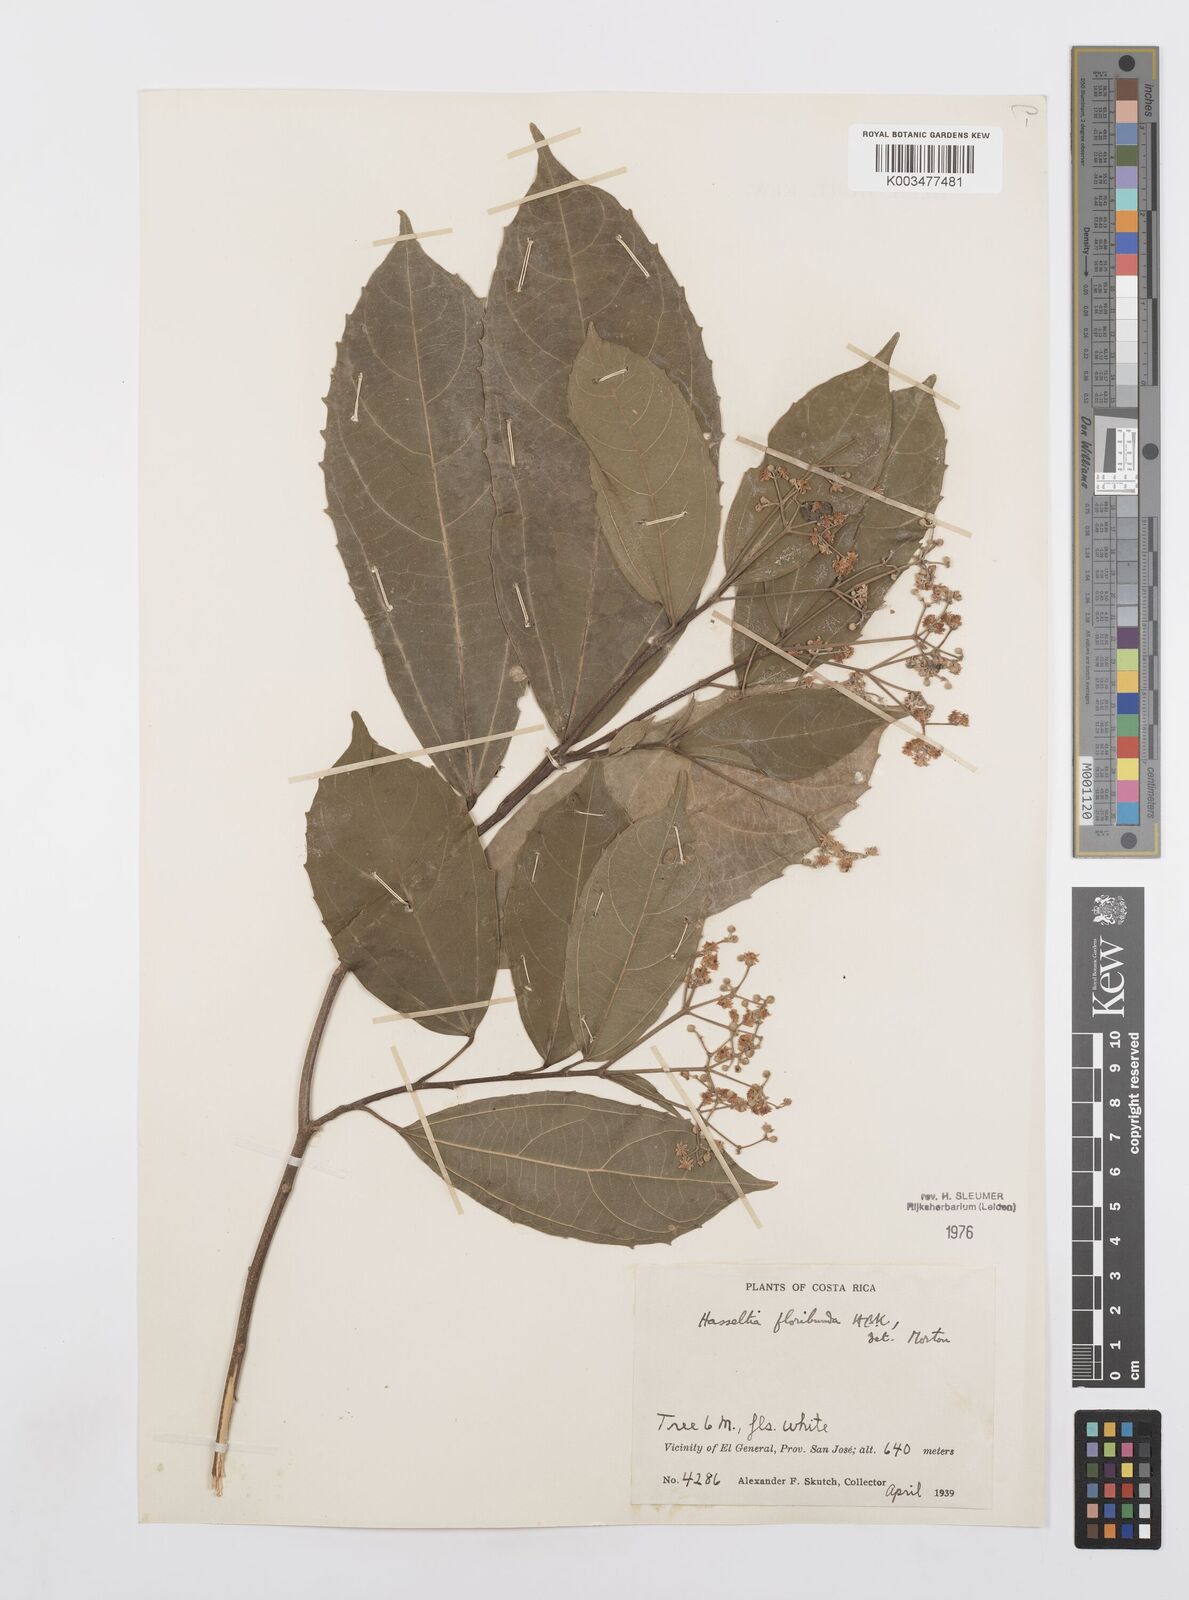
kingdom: Plantae
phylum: Tracheophyta
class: Magnoliopsida
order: Malpighiales
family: Salicaceae
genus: Hasseltia
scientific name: Hasseltia floribunda
